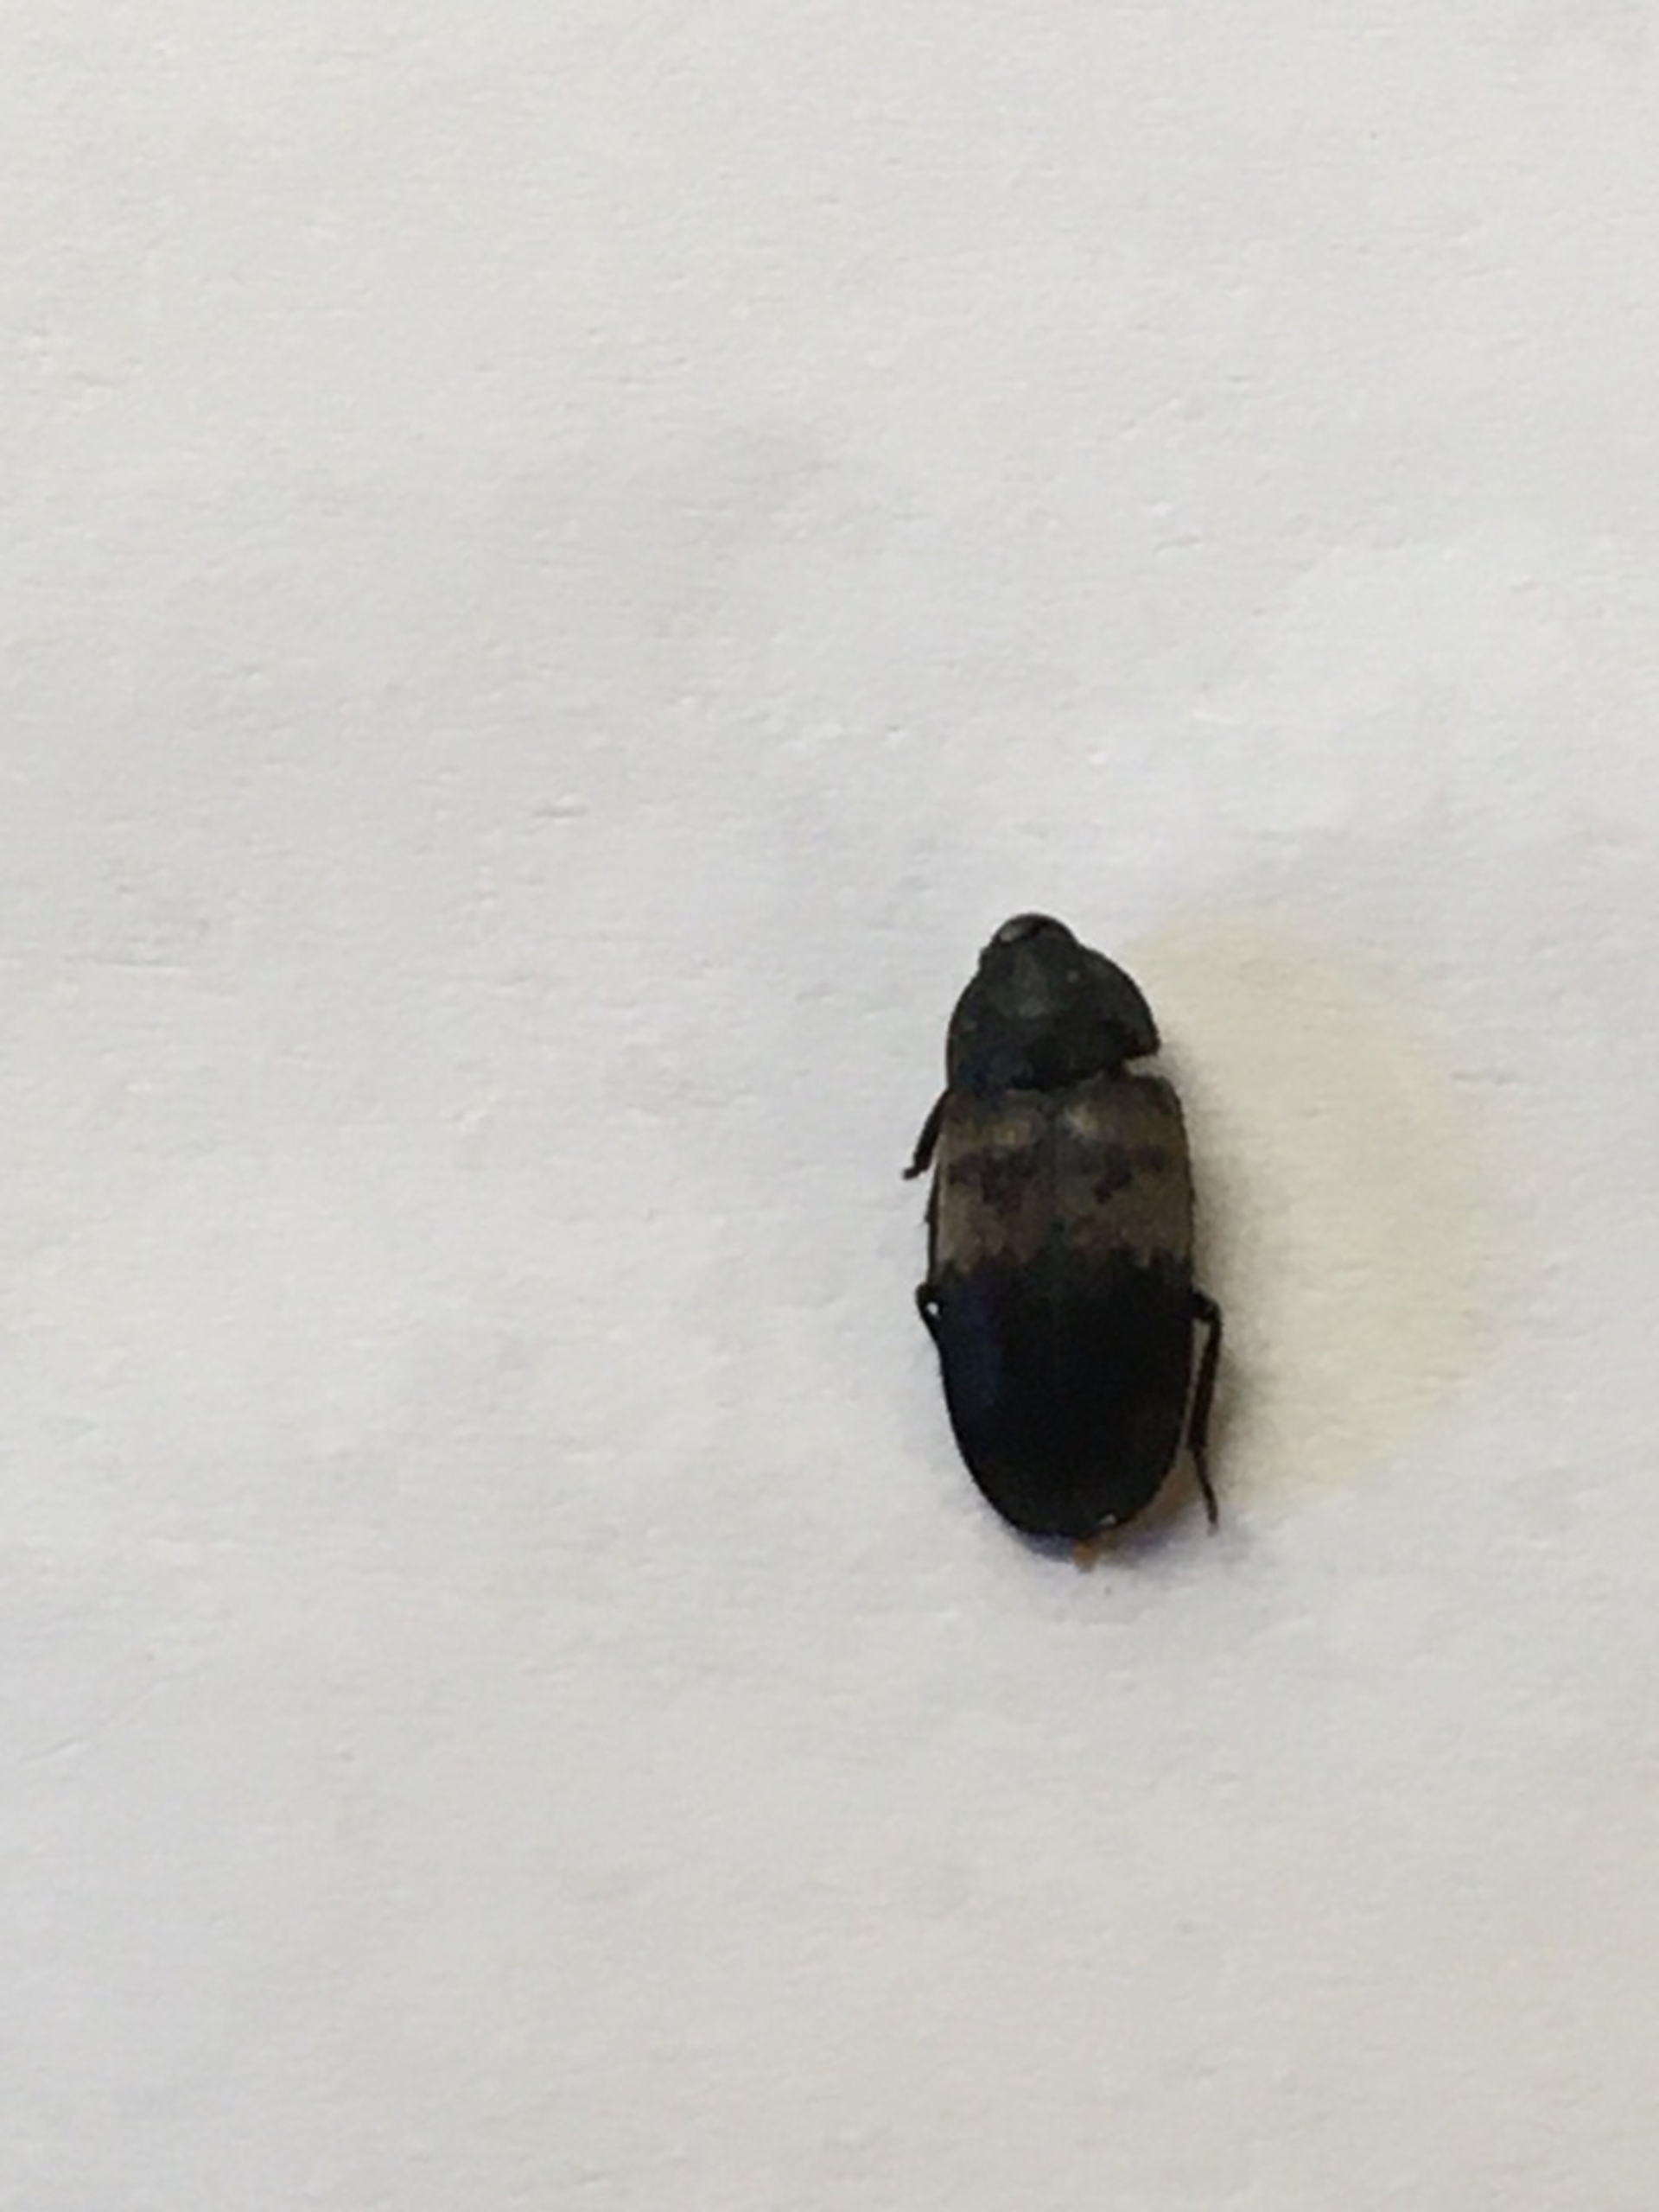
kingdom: Animalia
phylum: Arthropoda
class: Insecta
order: Coleoptera
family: Dermestidae
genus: Dermestes
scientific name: Dermestes lardarius
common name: Flæskeklanner
